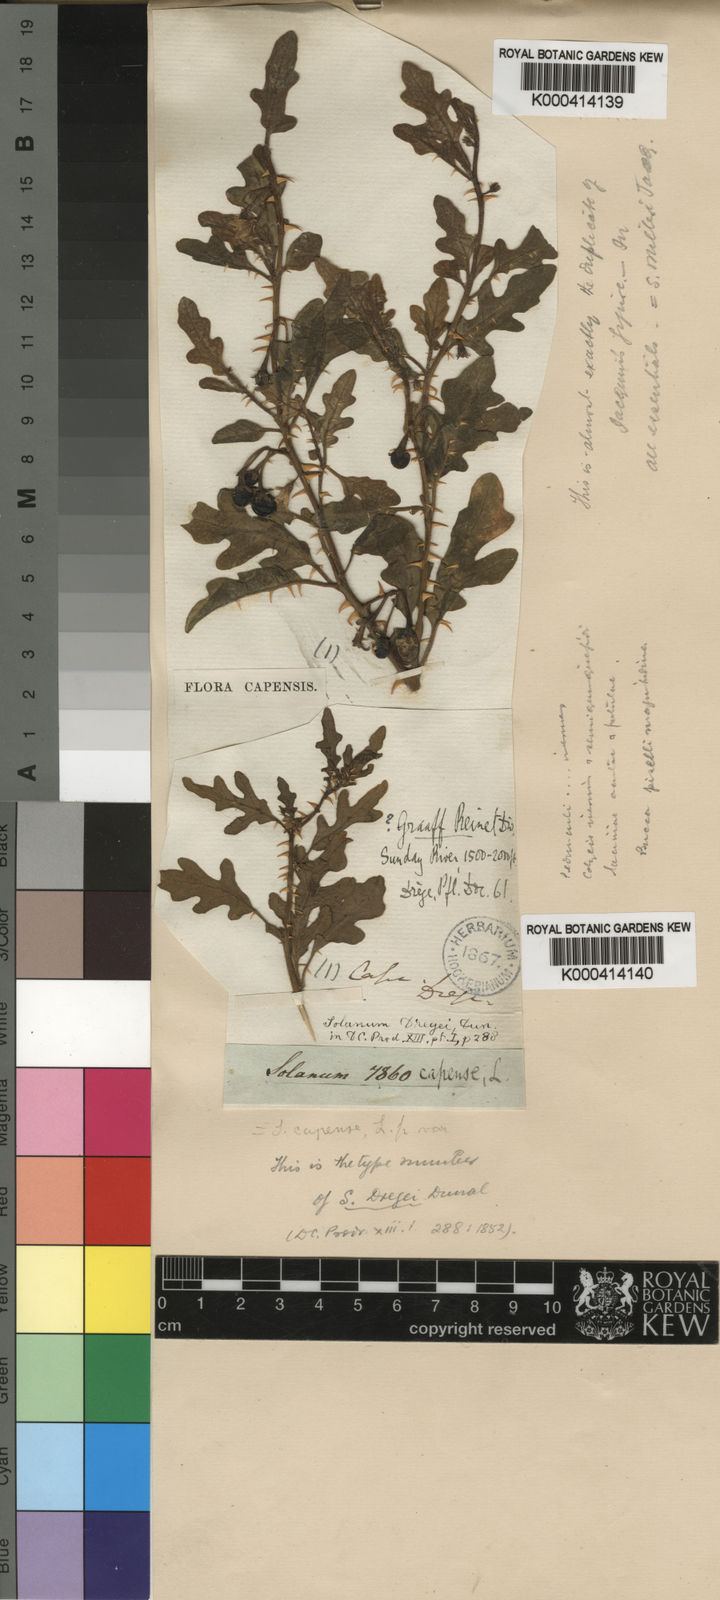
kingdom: Plantae
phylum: Tracheophyta
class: Magnoliopsida
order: Solanales
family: Solanaceae
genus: Solanum
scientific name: Solanum capense
